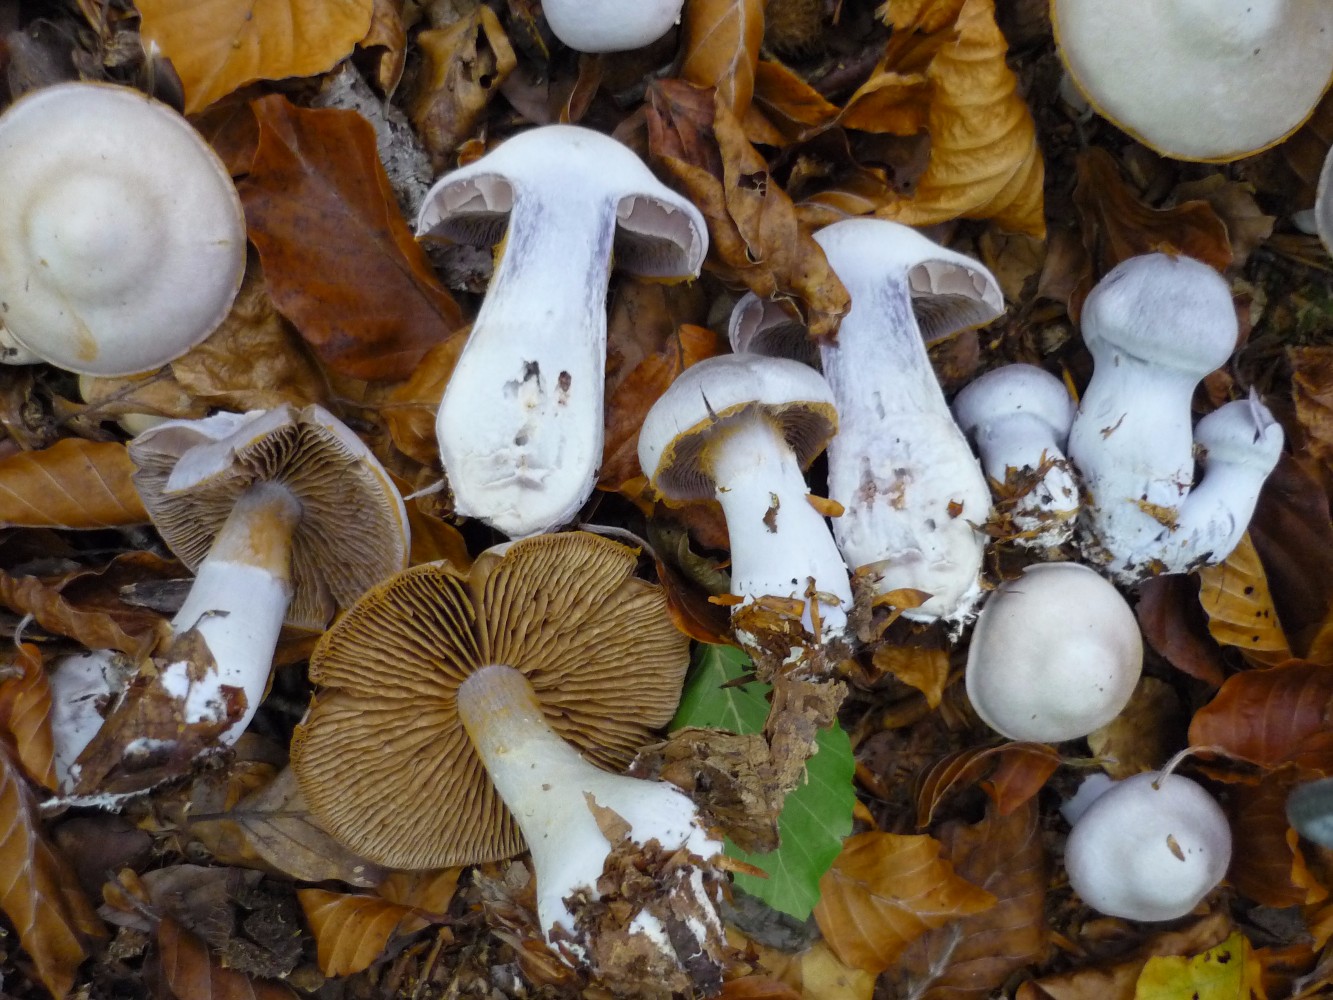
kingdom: Fungi
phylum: Basidiomycota
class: Agaricomycetes
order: Agaricales
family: Cortinariaceae
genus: Cortinarius
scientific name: Cortinarius alboviolaceus
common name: lysviolet slørhat
